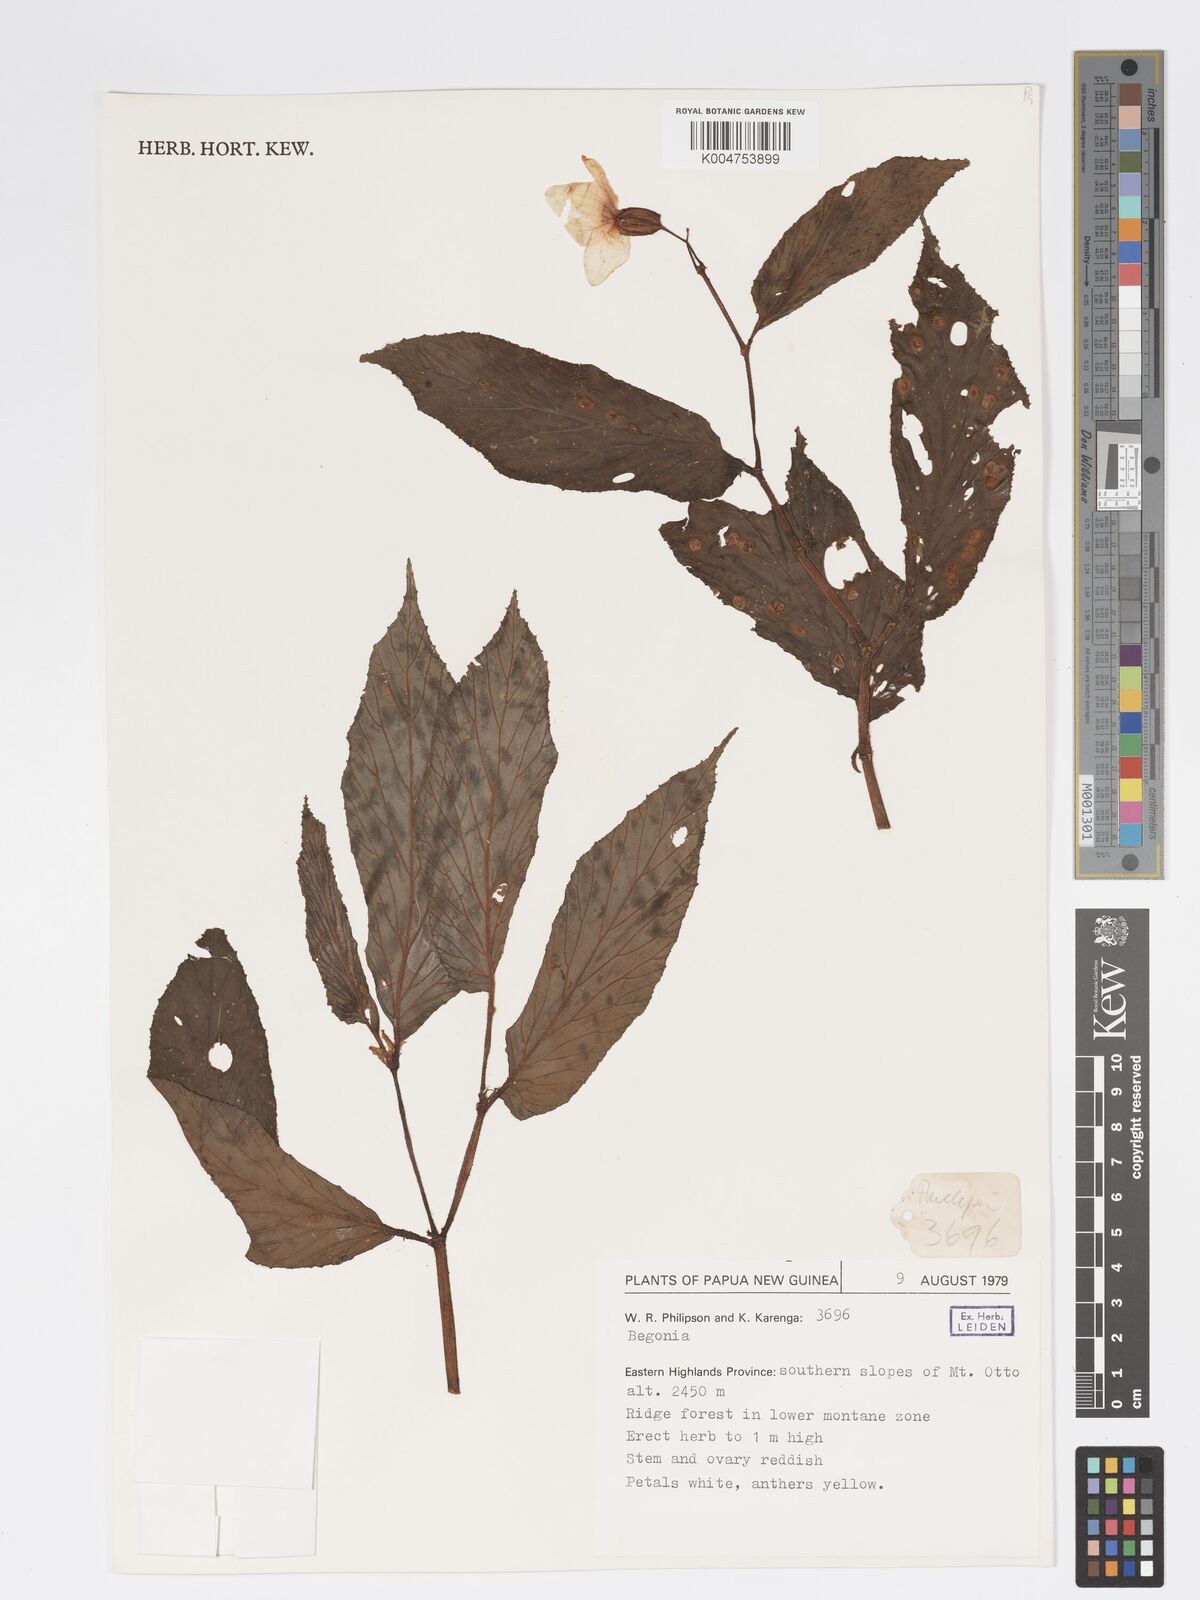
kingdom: Plantae
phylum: Tracheophyta
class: Magnoliopsida
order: Cucurbitales
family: Begoniaceae
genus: Begonia
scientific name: Begonia
